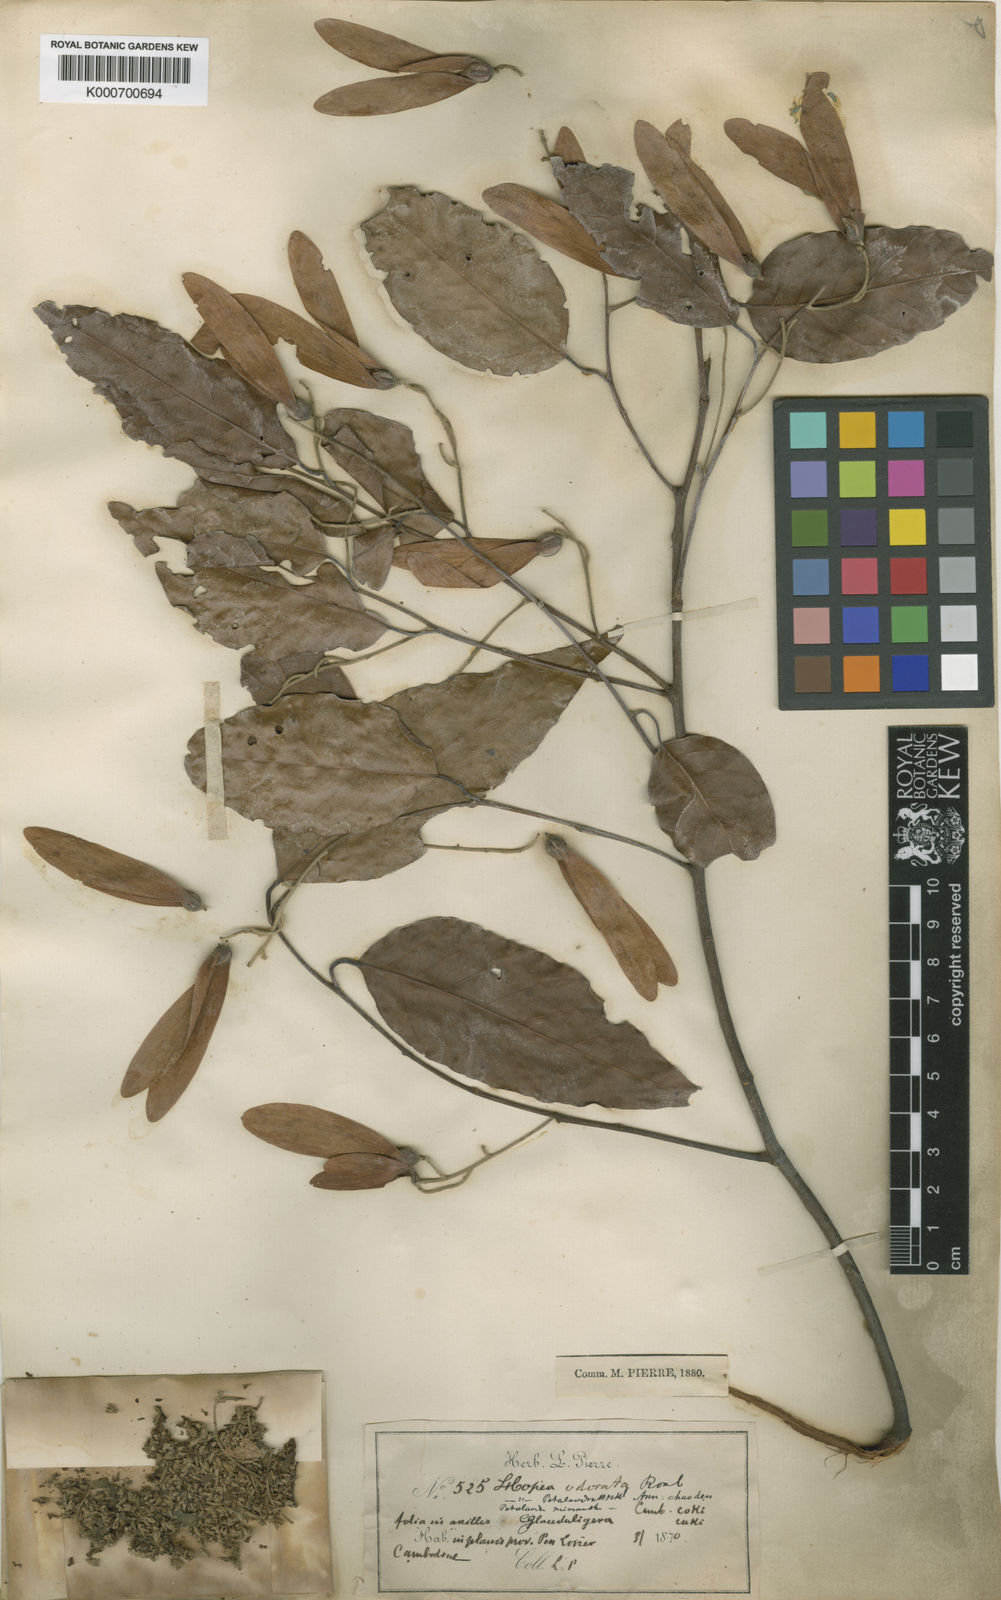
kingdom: Plantae
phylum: Tracheophyta
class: Magnoliopsida
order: Malvales
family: Dipterocarpaceae
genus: Hopea
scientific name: Hopea odorata
